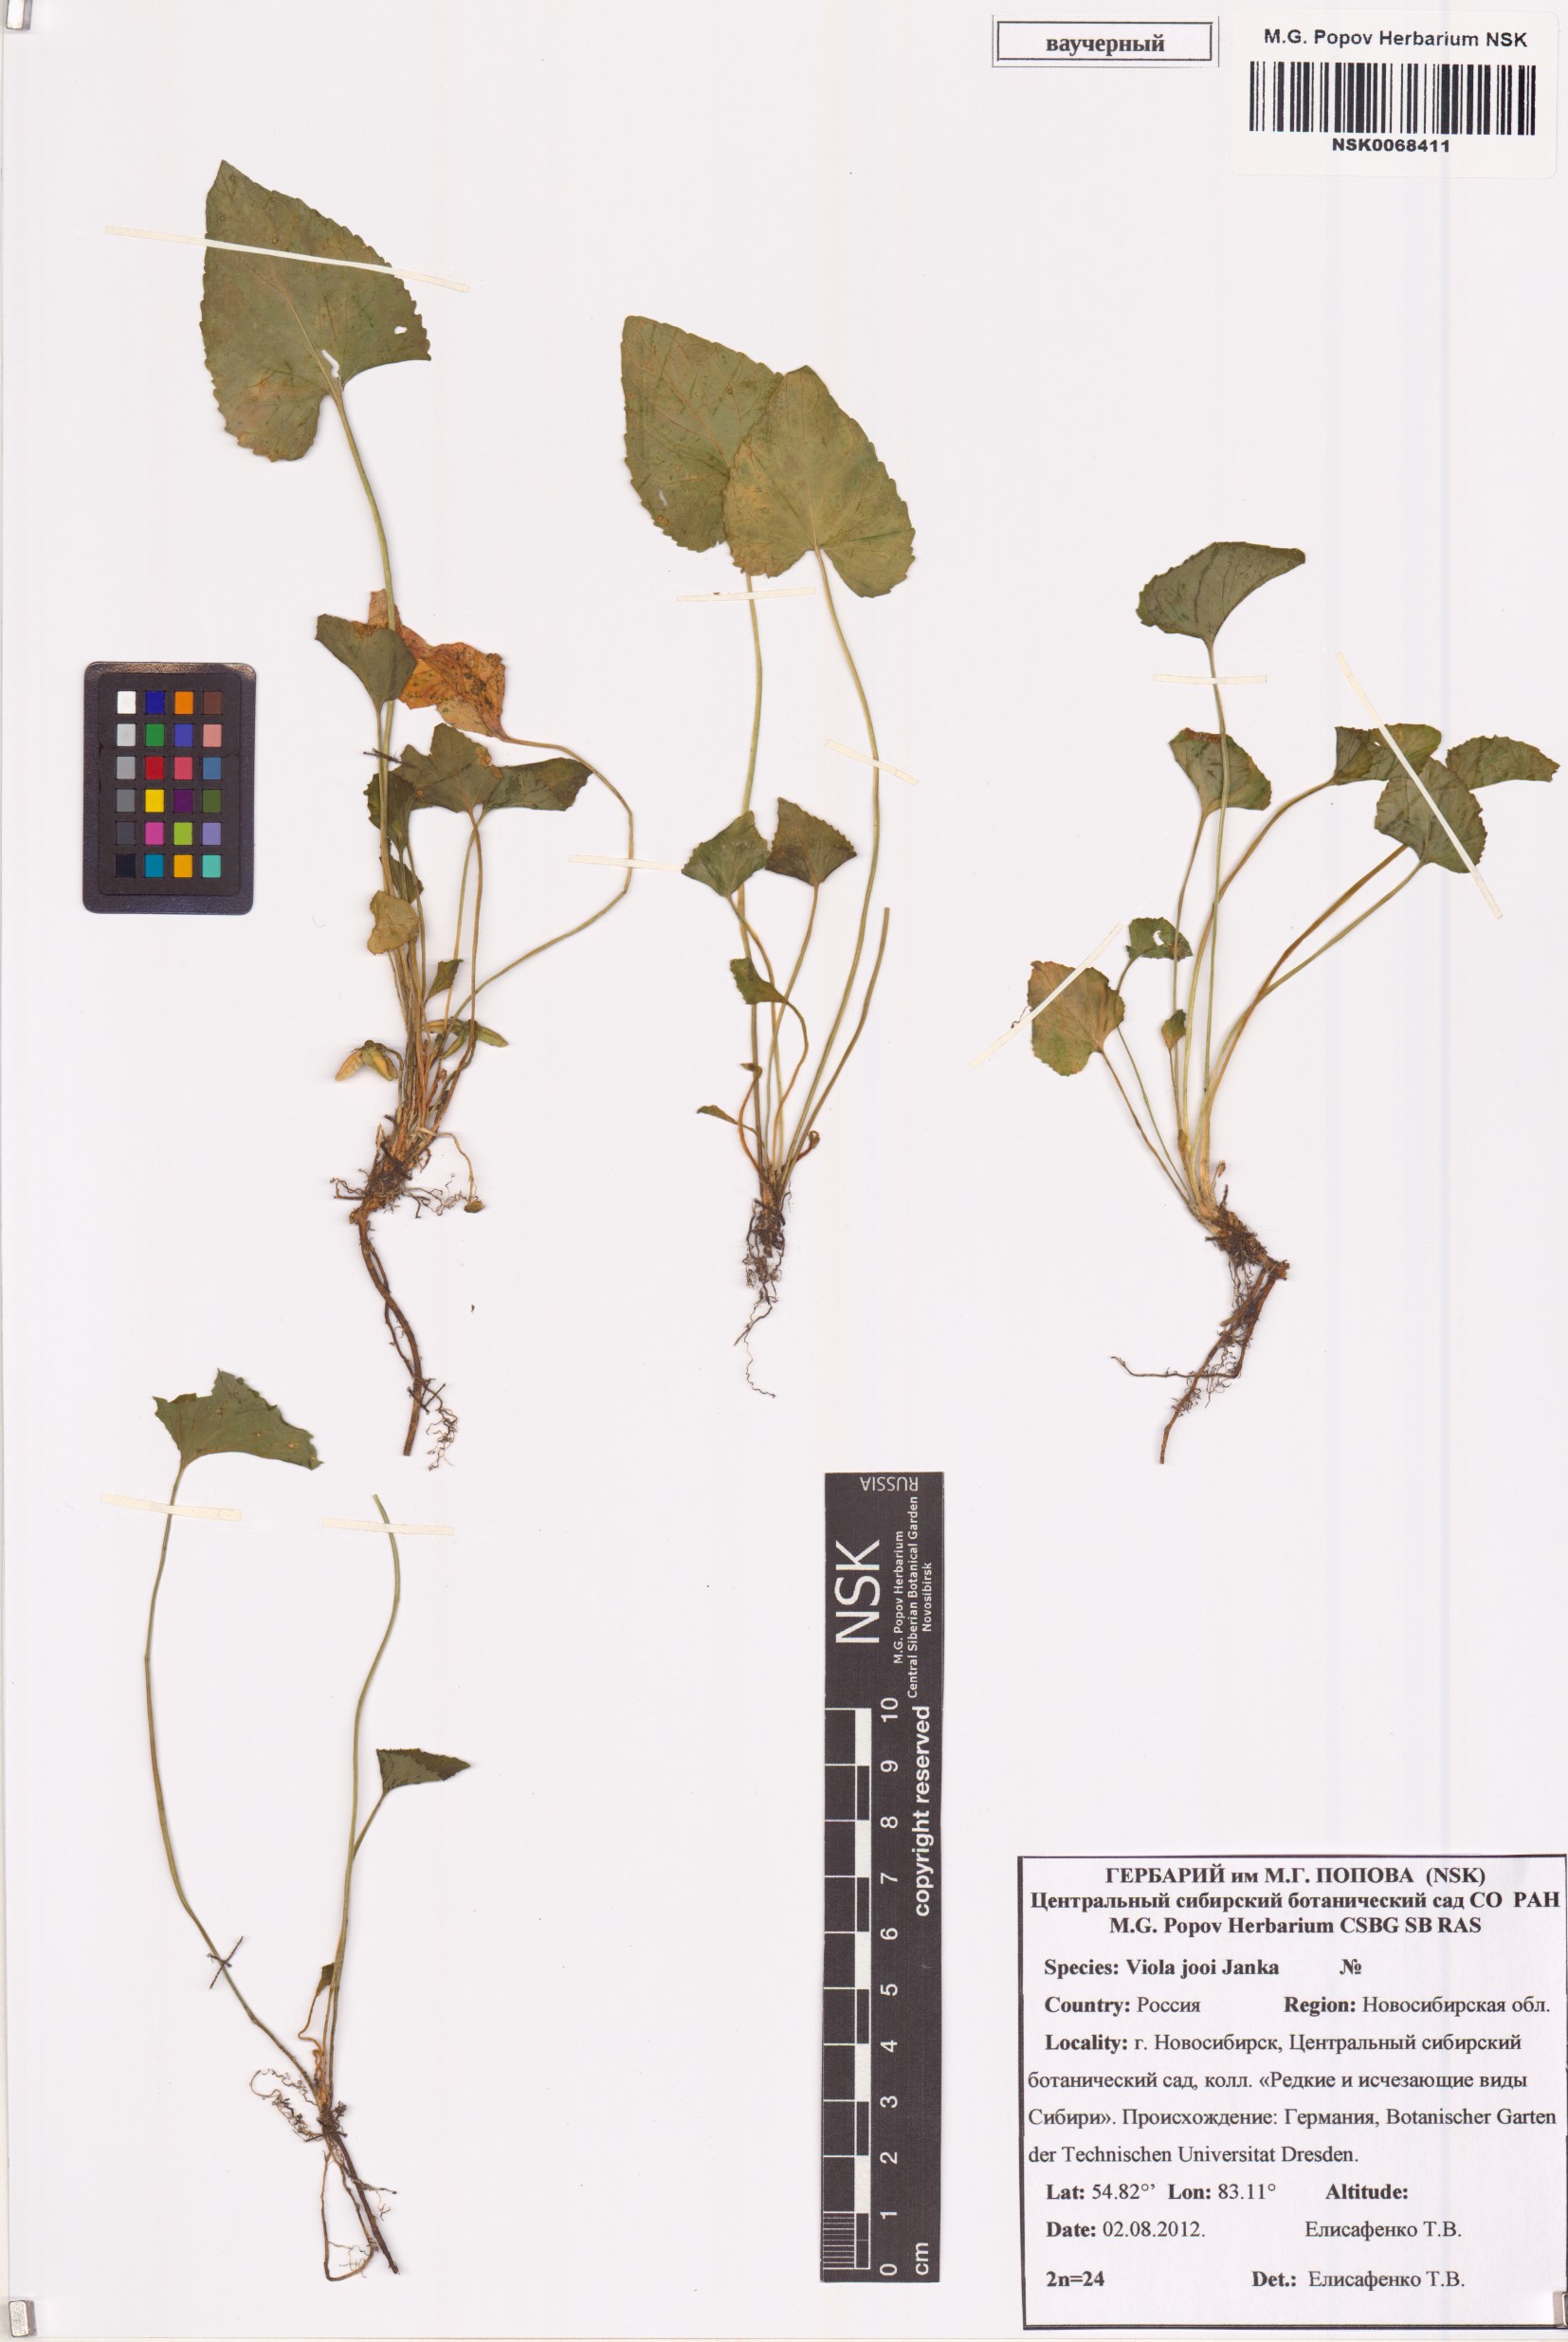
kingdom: Plantae
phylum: Tracheophyta
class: Magnoliopsida
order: Malpighiales
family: Violaceae
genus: Viola
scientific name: Viola jooi
